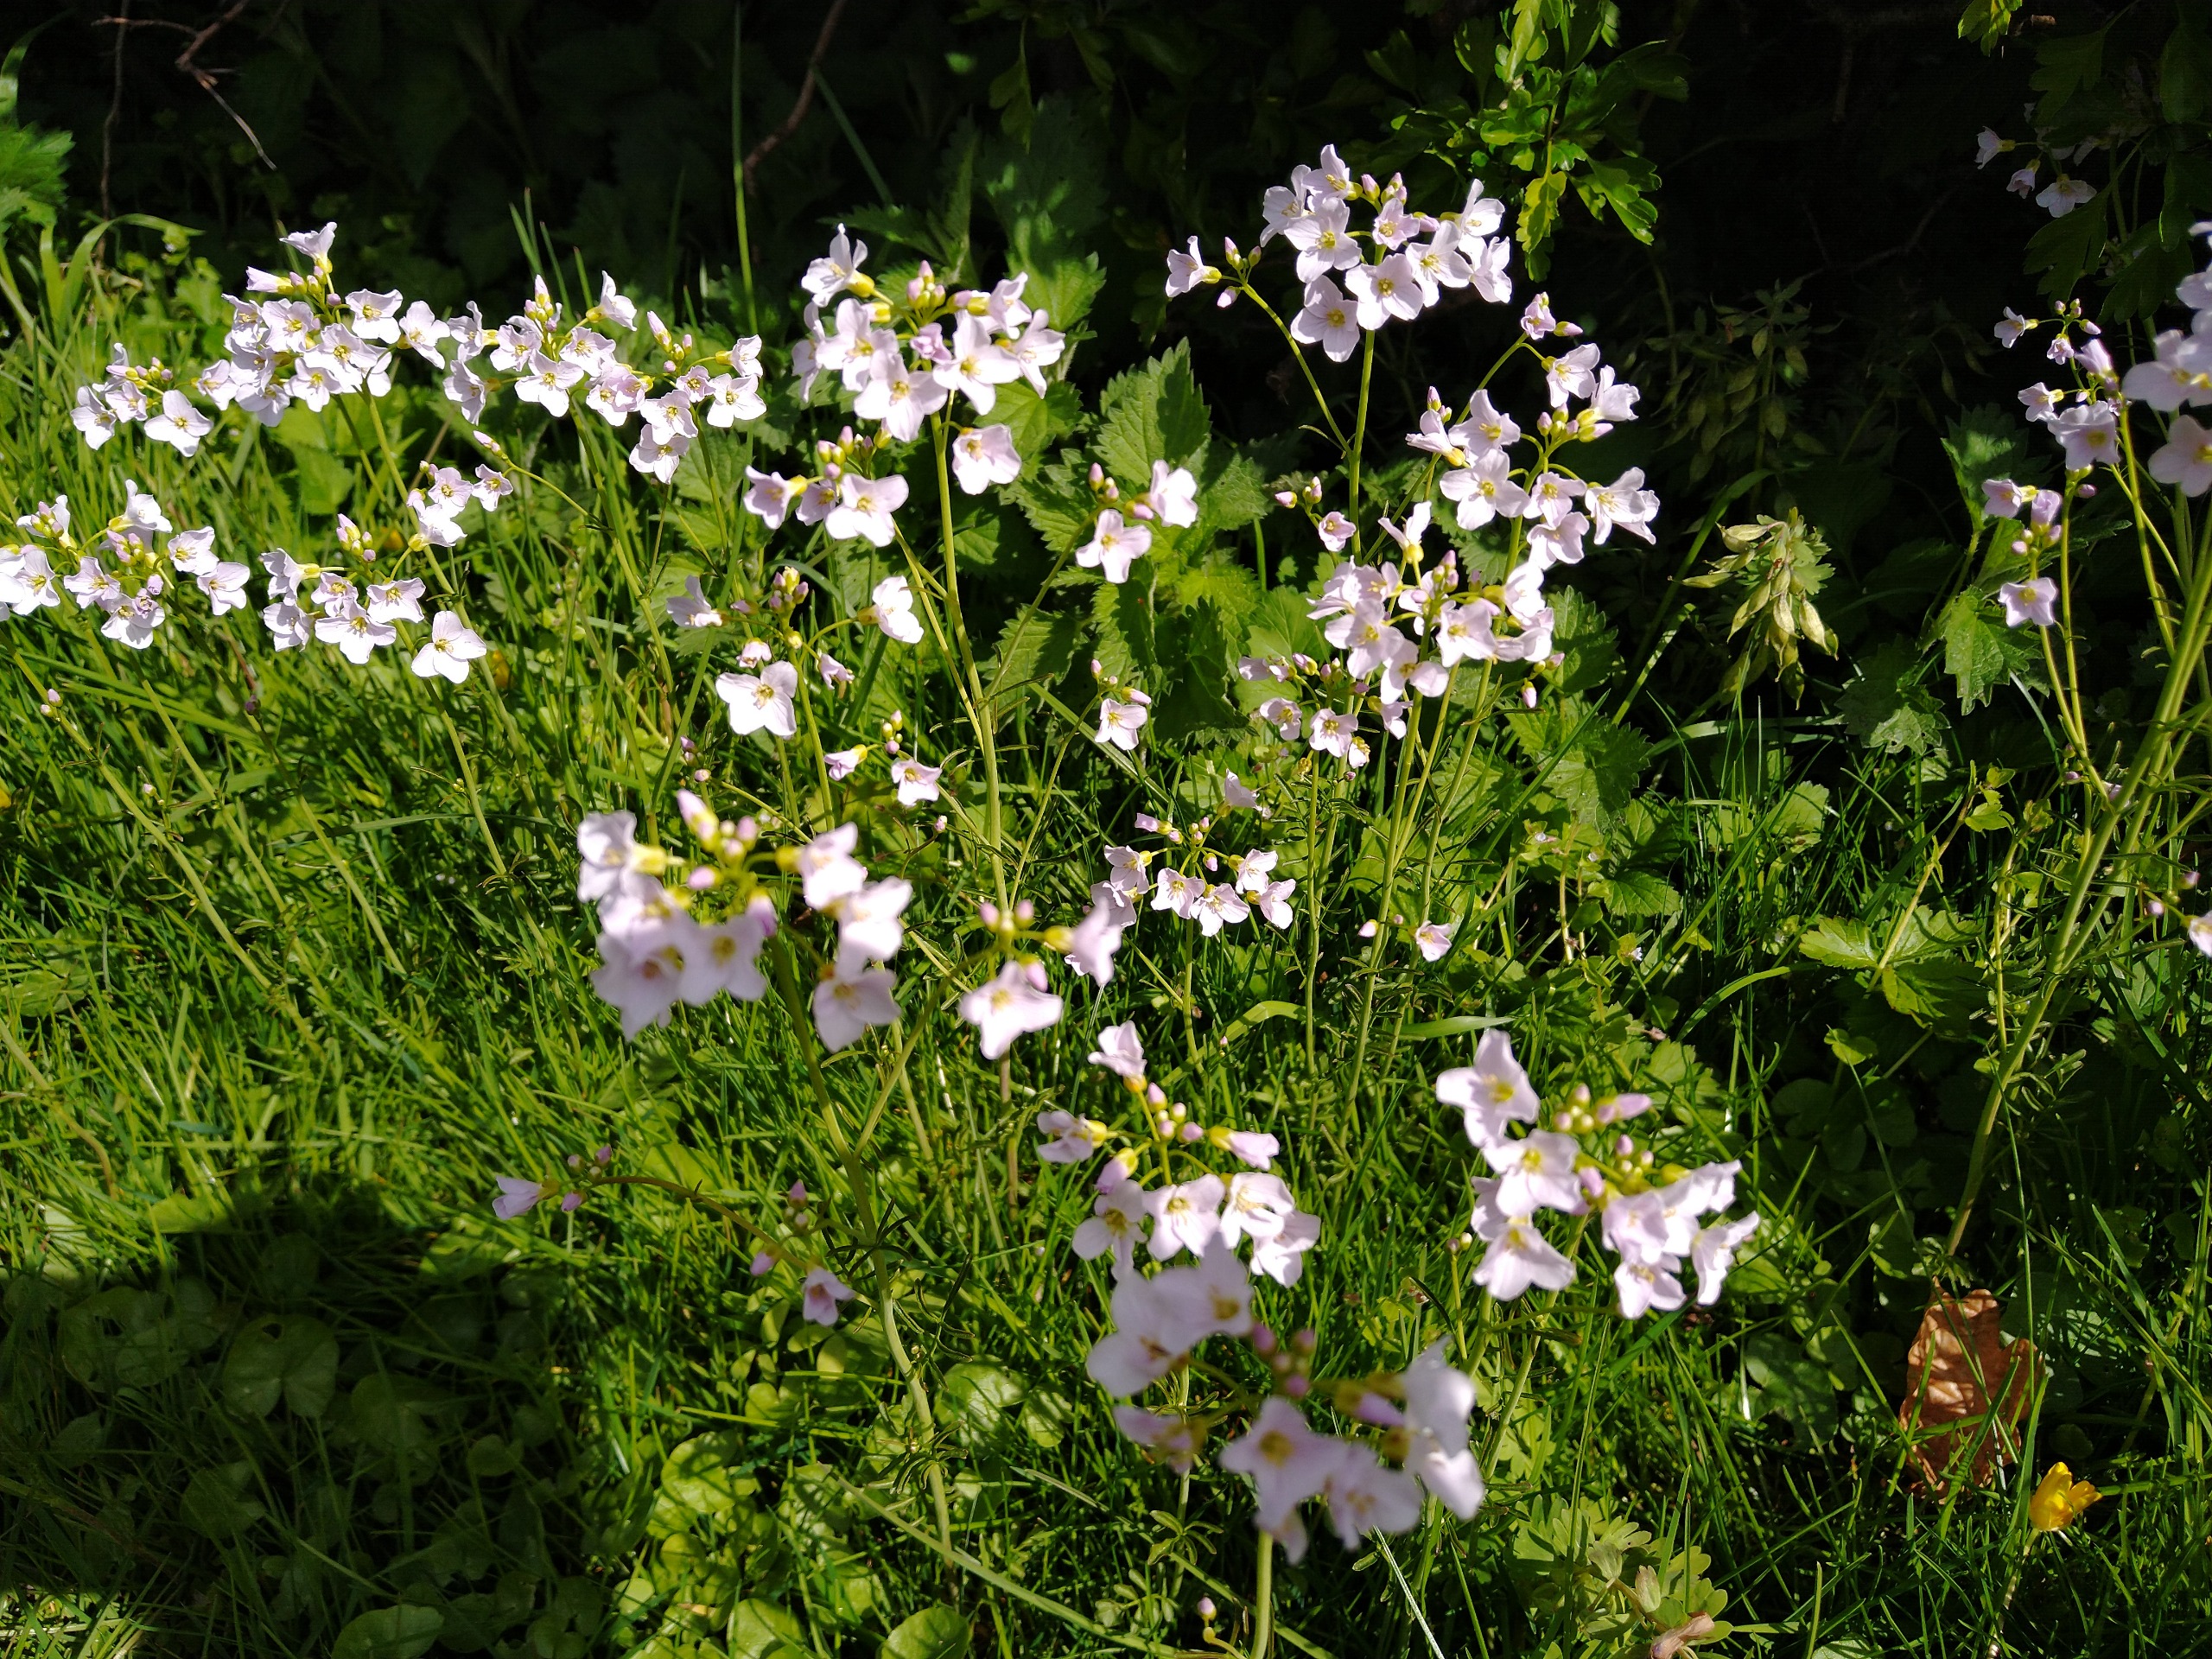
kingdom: Plantae
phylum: Tracheophyta
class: Magnoliopsida
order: Brassicales
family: Brassicaceae
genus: Cardamine
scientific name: Cardamine pratensis
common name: Engkarse
